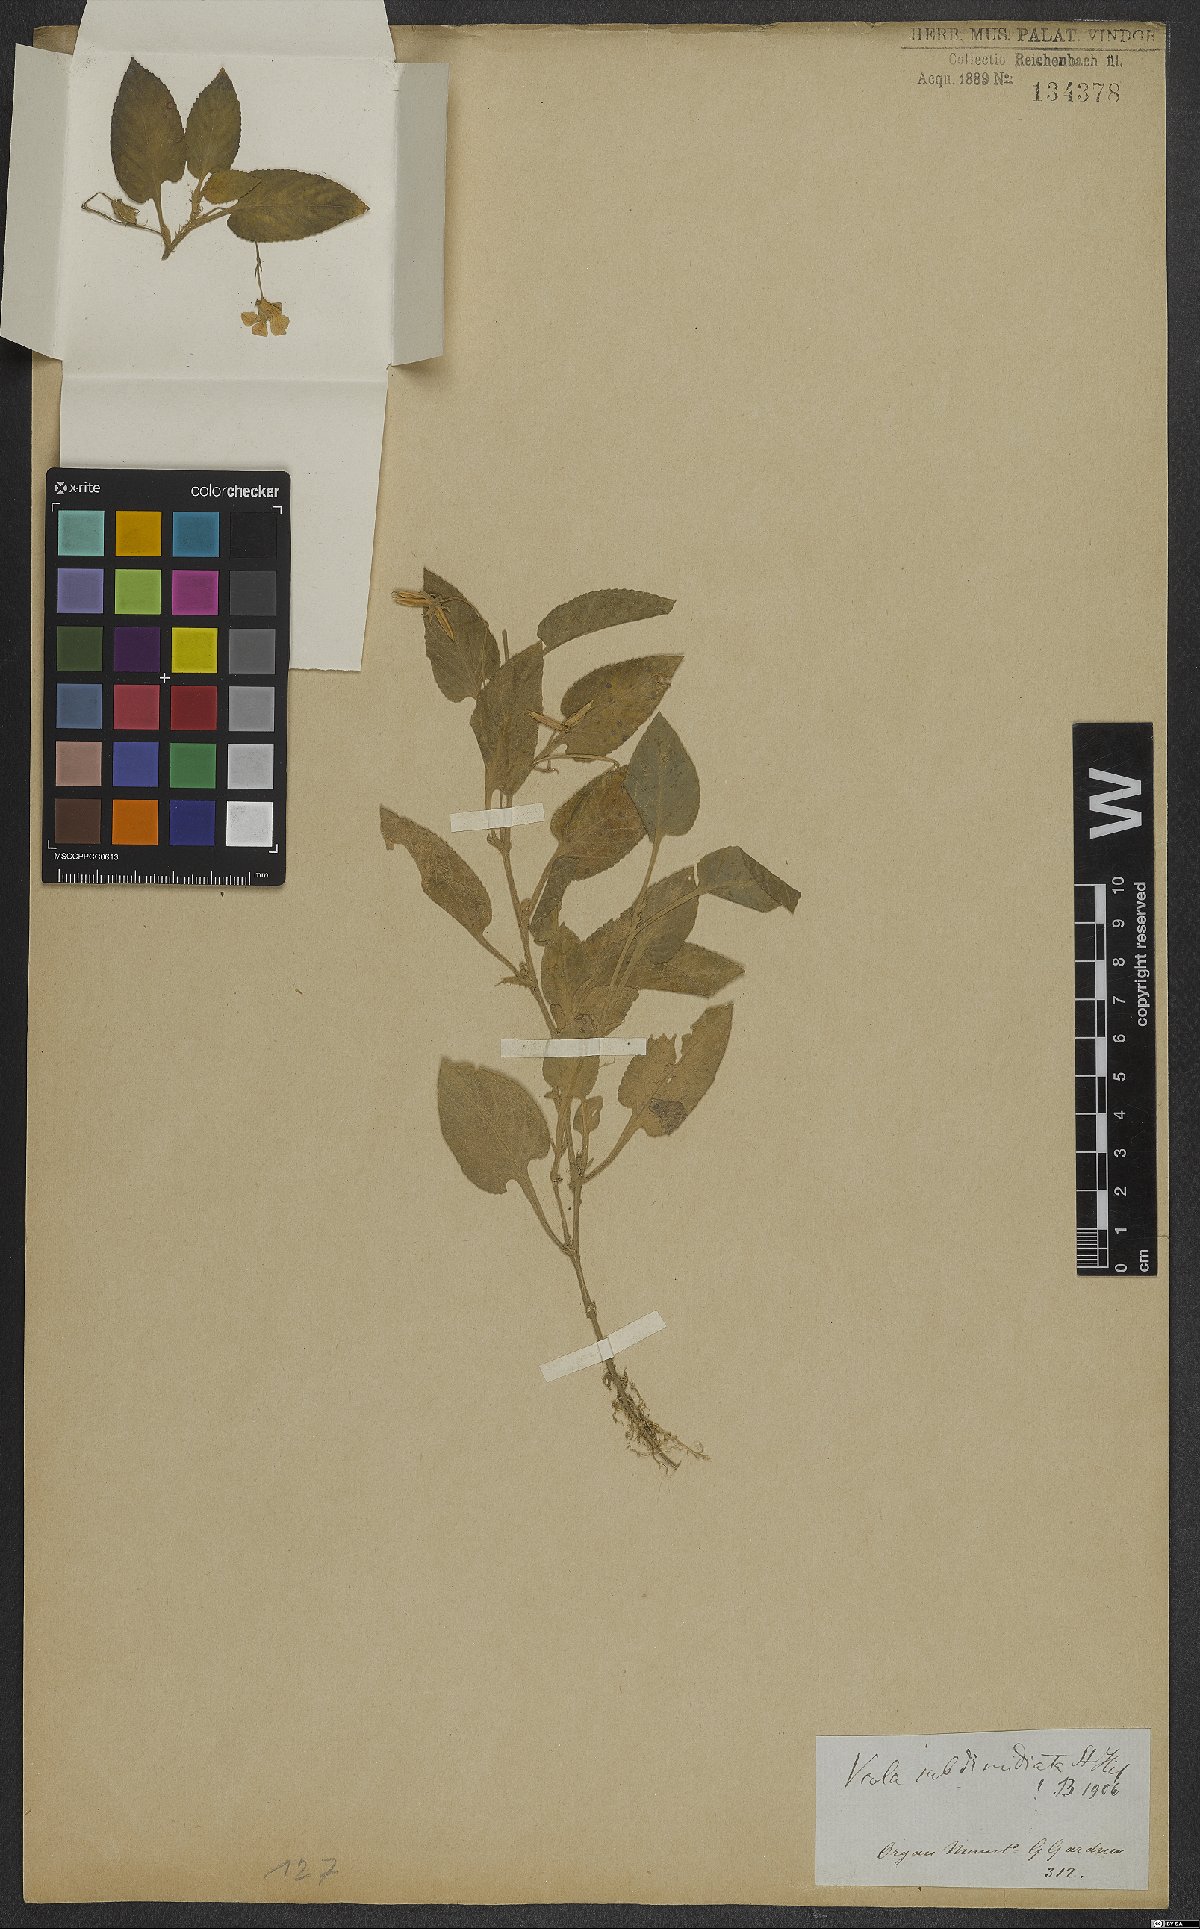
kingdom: Plantae
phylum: Tracheophyta
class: Magnoliopsida
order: Malpighiales
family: Violaceae
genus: Viola
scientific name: Viola subdimidiata
